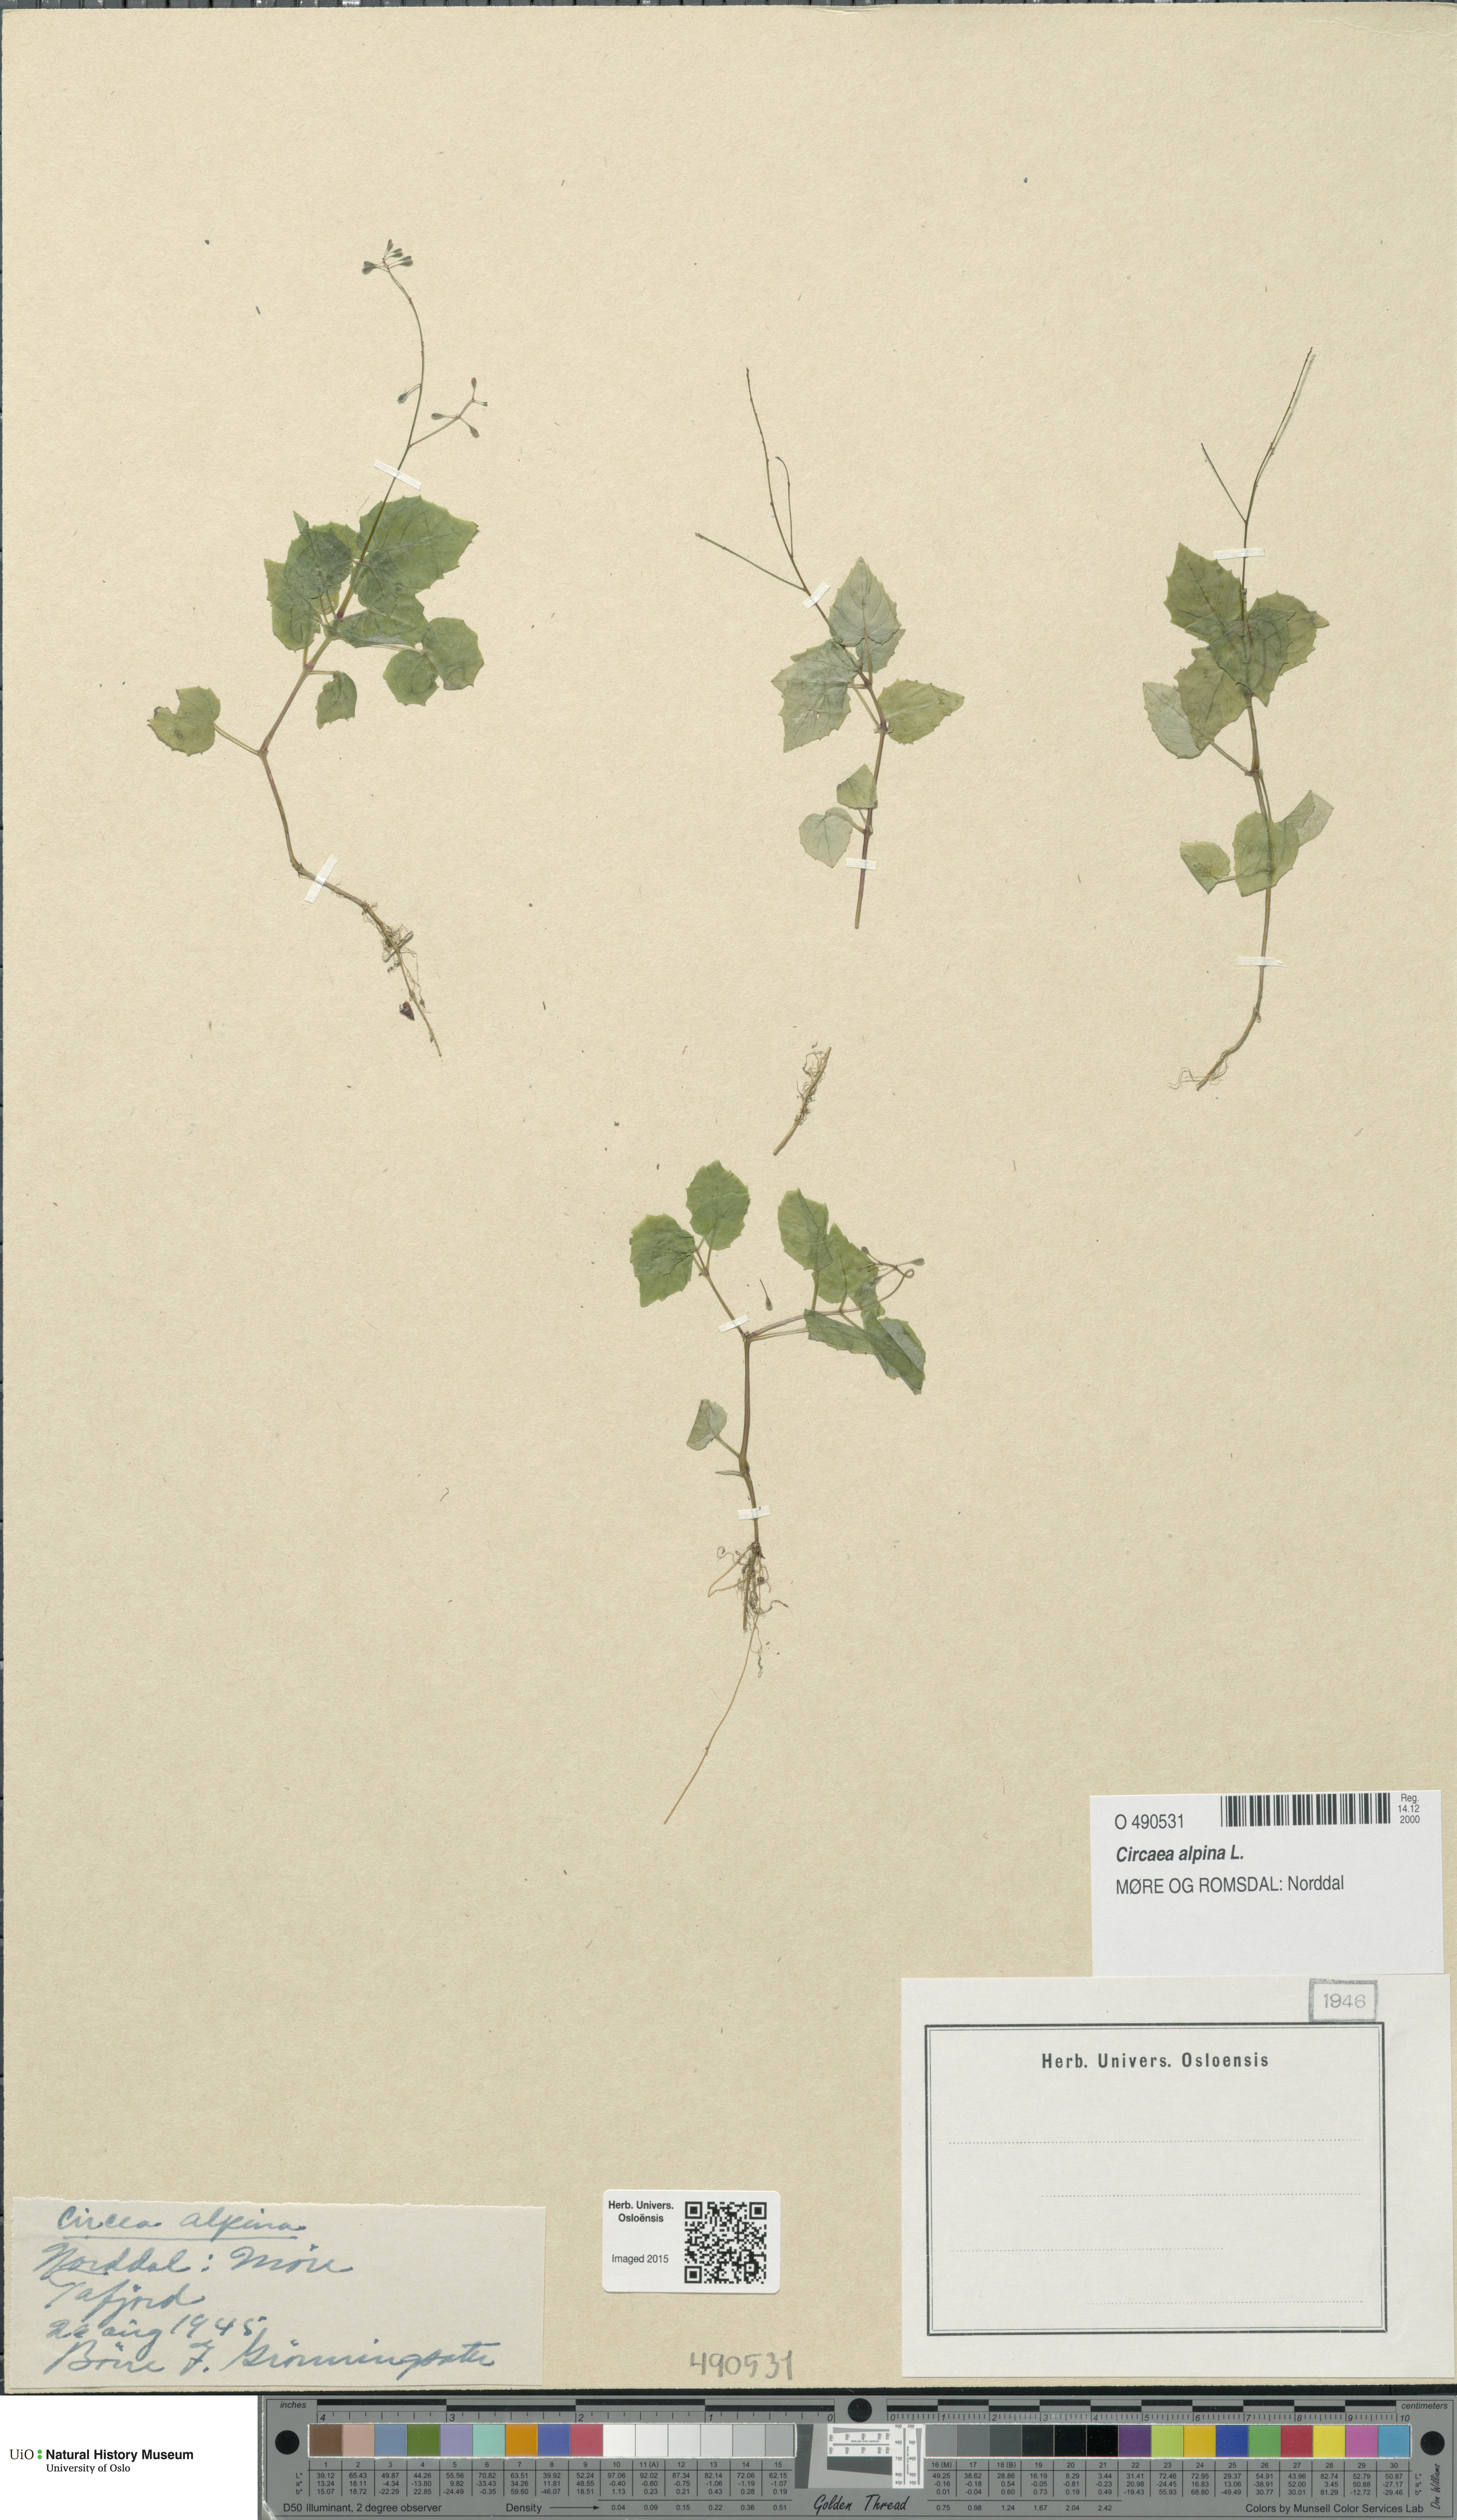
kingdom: Plantae
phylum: Tracheophyta
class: Magnoliopsida
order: Myrtales
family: Onagraceae
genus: Circaea
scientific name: Circaea alpina
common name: Alpine enchanter's-nightshade
